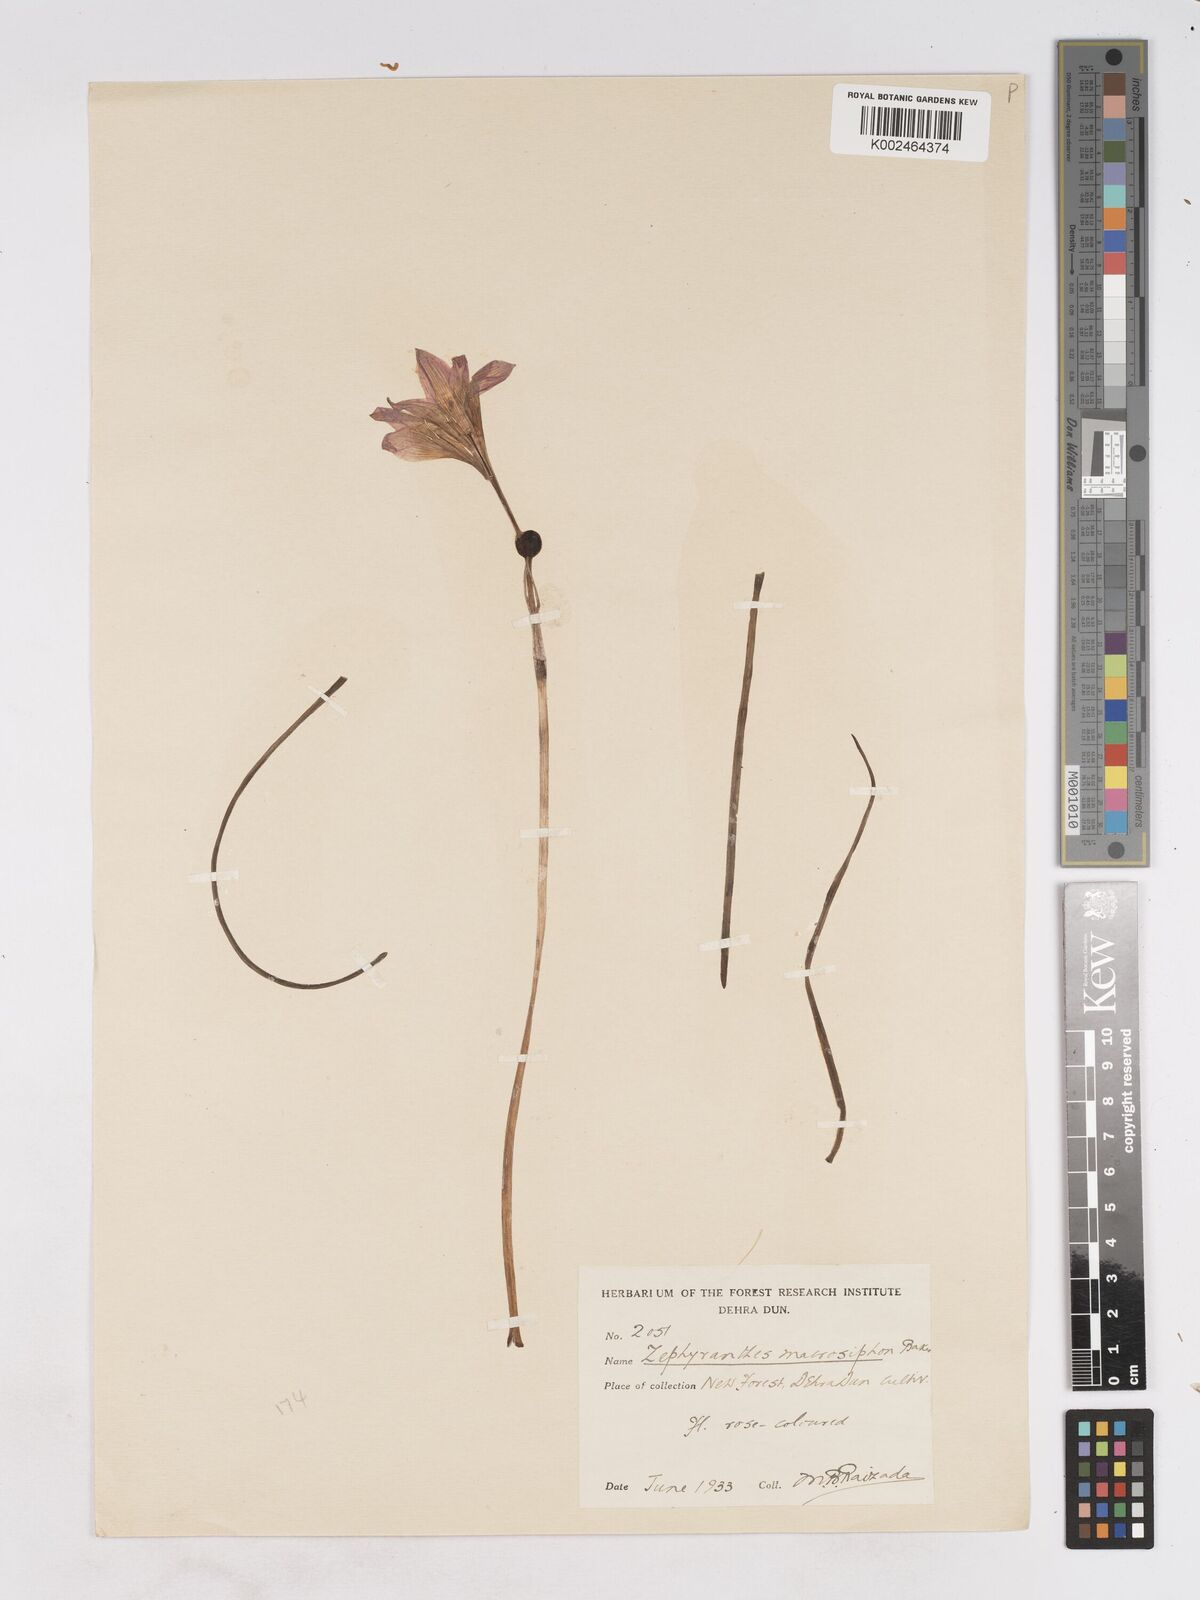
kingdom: Plantae
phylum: Tracheophyta
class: Liliopsida
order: Asparagales
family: Amaryllidaceae
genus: Zephyranthes
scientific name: Zephyranthes macrosiphon
